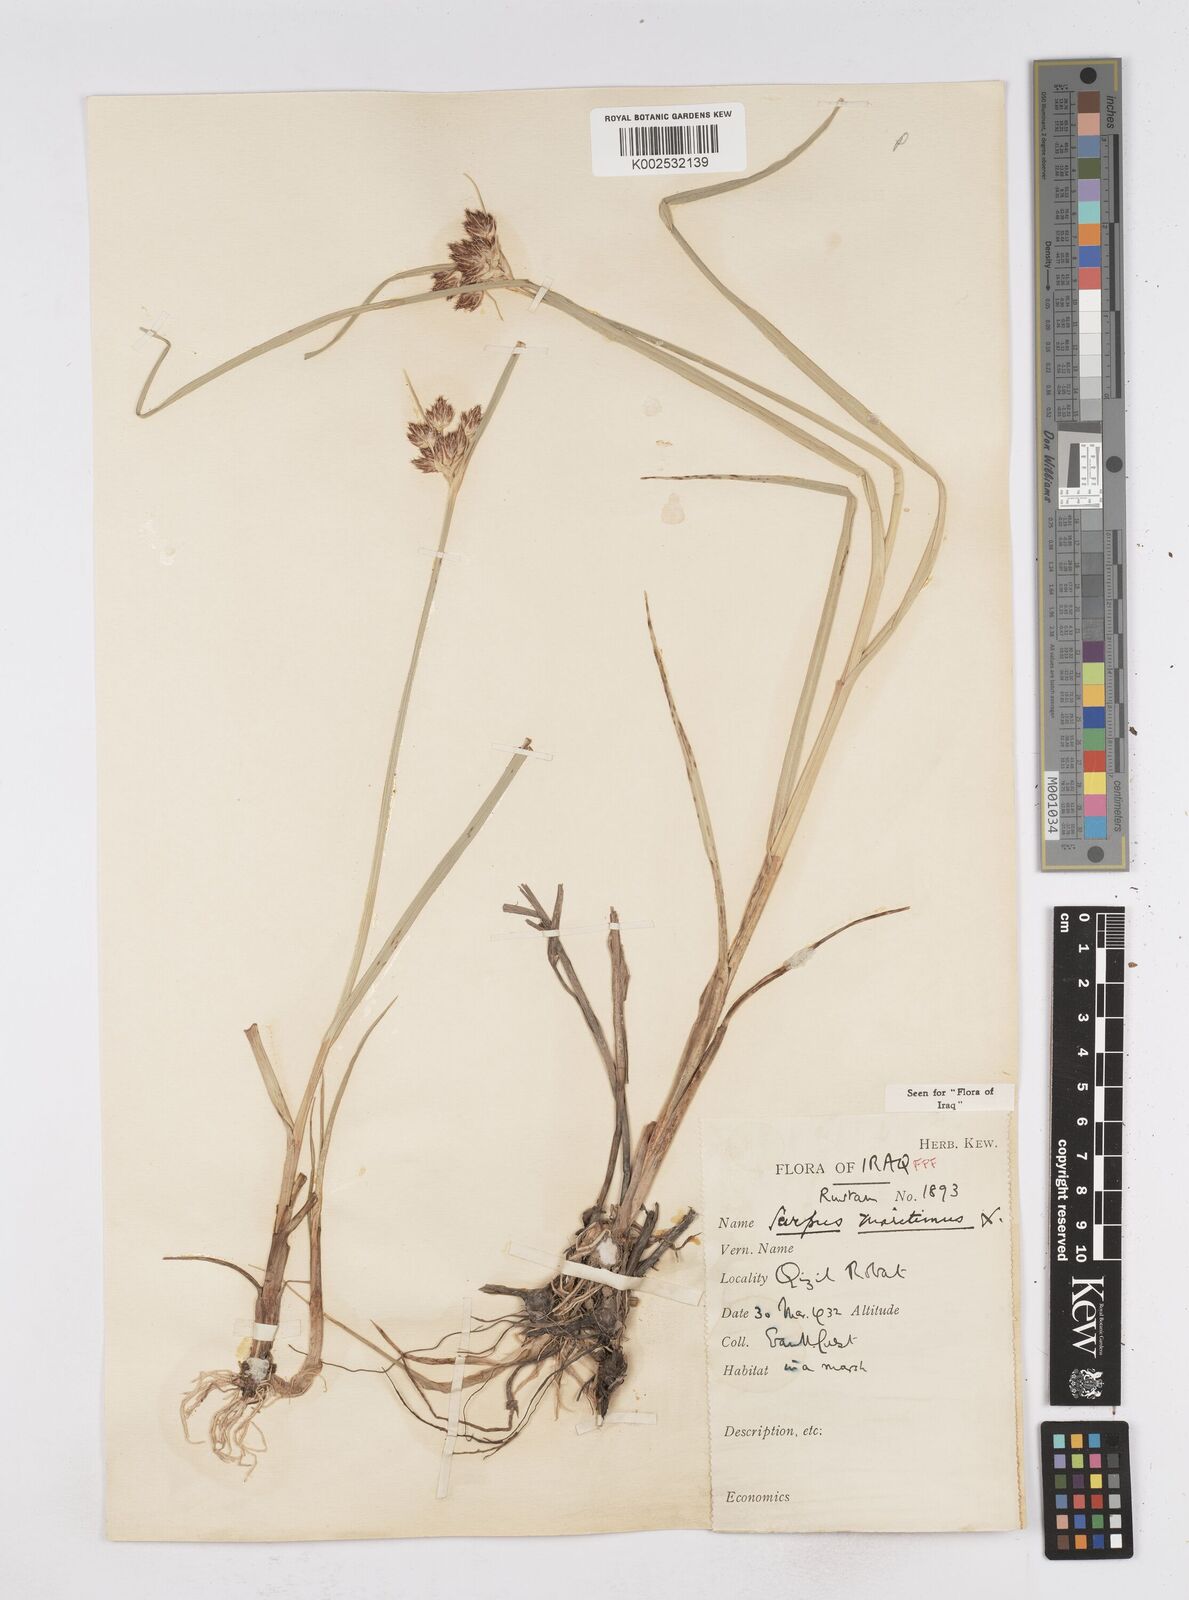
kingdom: Plantae
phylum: Tracheophyta
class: Liliopsida
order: Poales
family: Cyperaceae
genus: Bolboschoenus
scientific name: Bolboschoenus maritimus
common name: Sea club-rush
